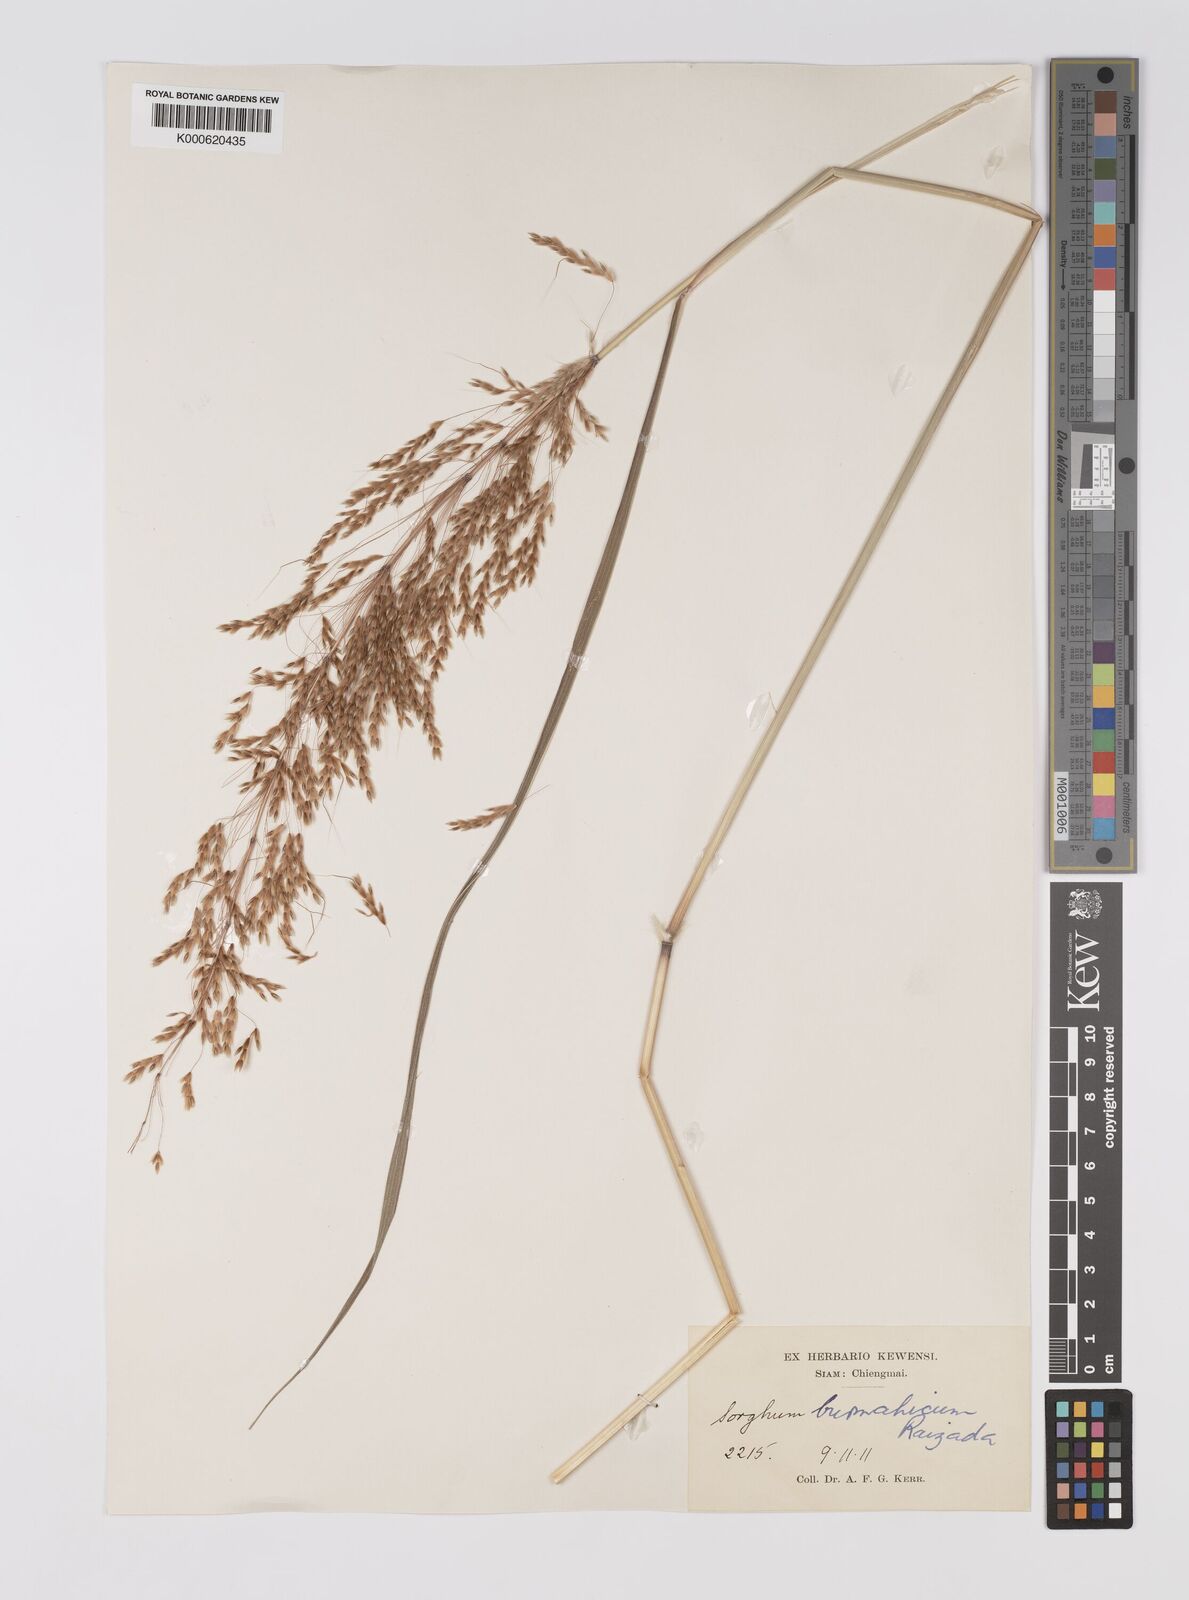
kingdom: Plantae
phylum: Tracheophyta
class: Liliopsida
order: Poales
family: Poaceae
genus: Sorghum
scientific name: Sorghum burmahicum
